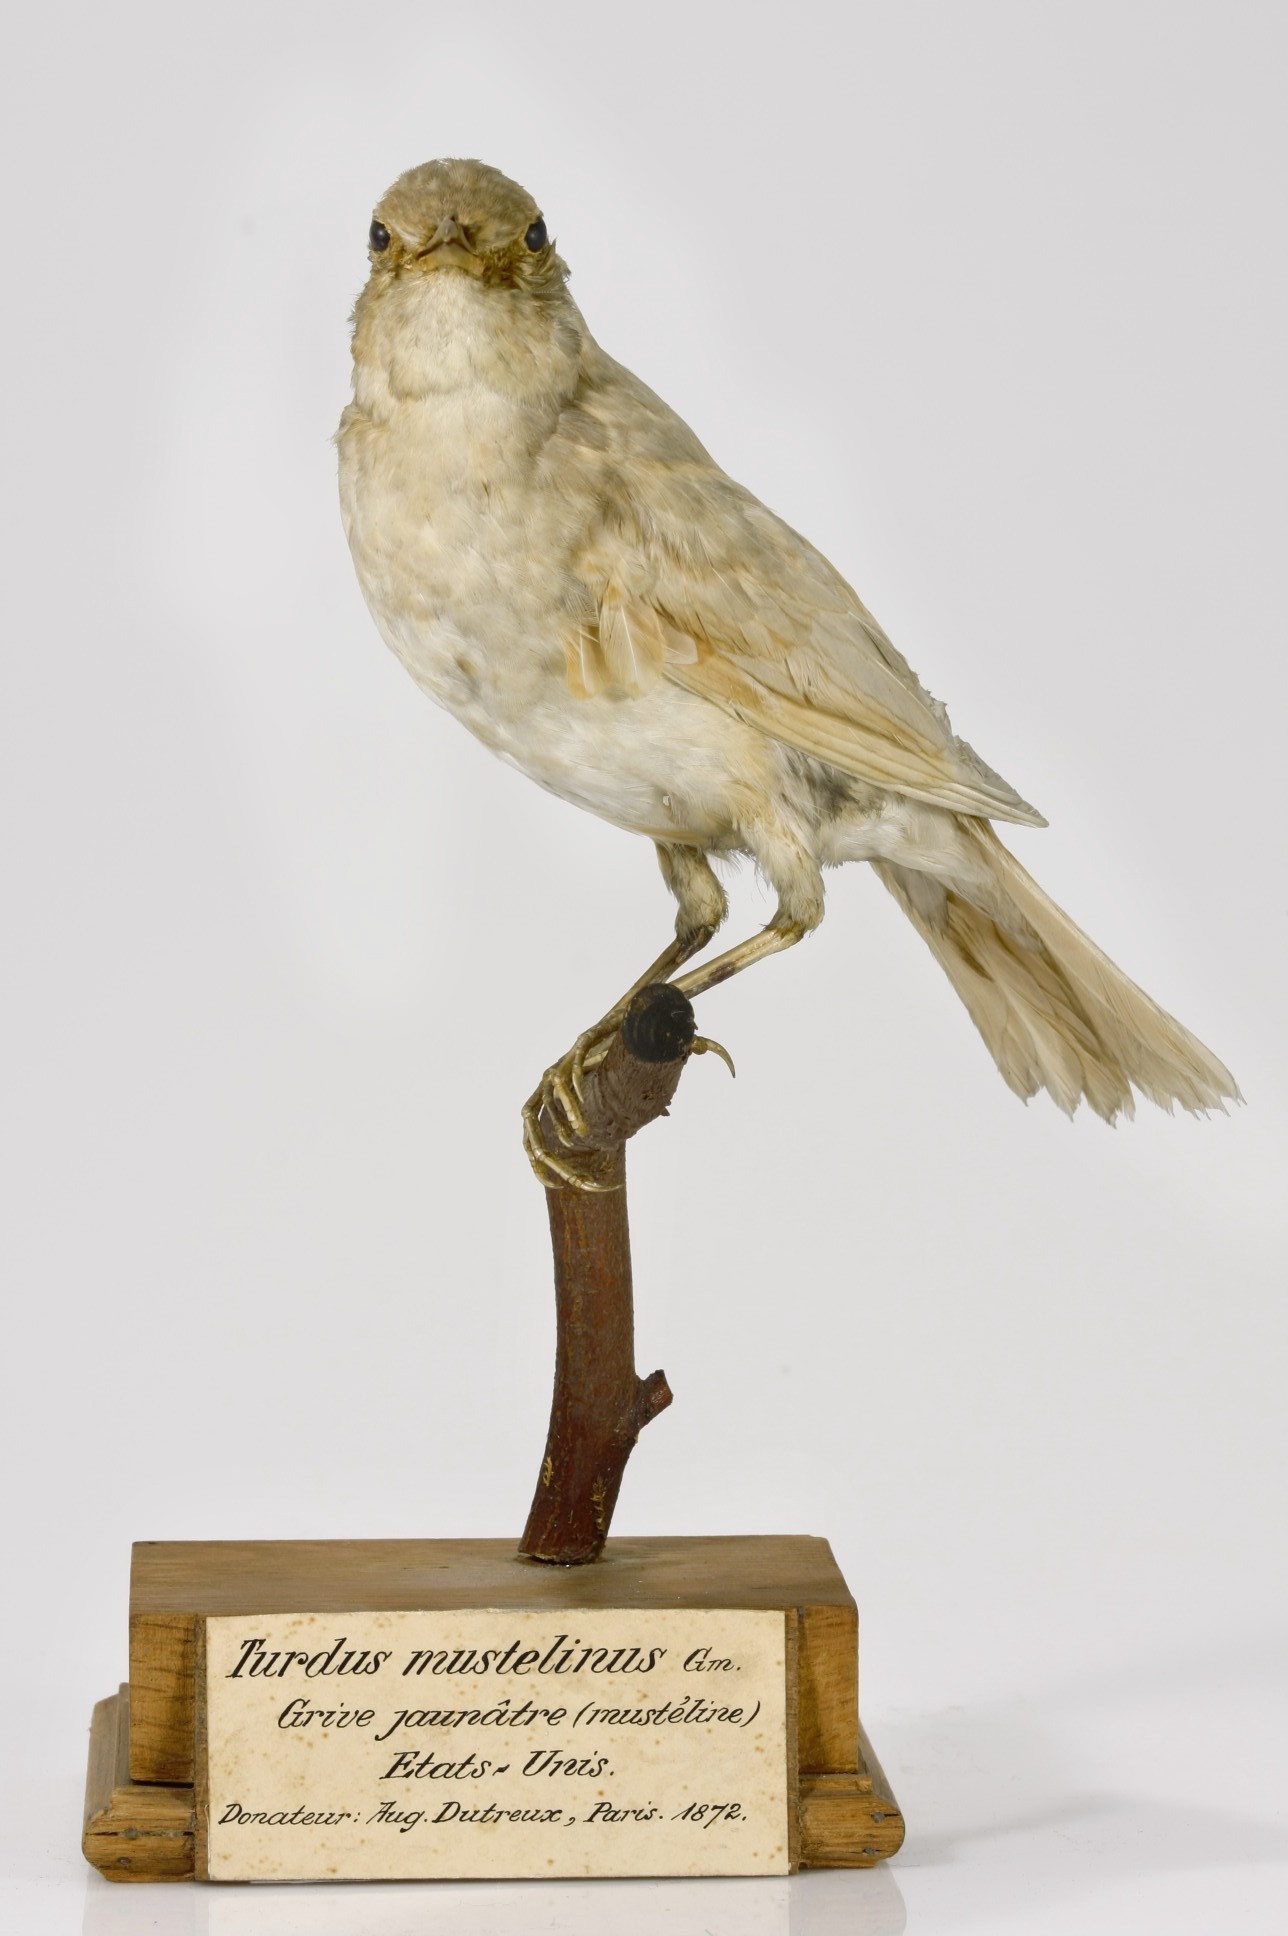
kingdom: Animalia
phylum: Chordata
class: Aves
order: Passeriformes
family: Turdidae
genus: Turdus
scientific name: Turdus grayi
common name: Clay-colored thrush
